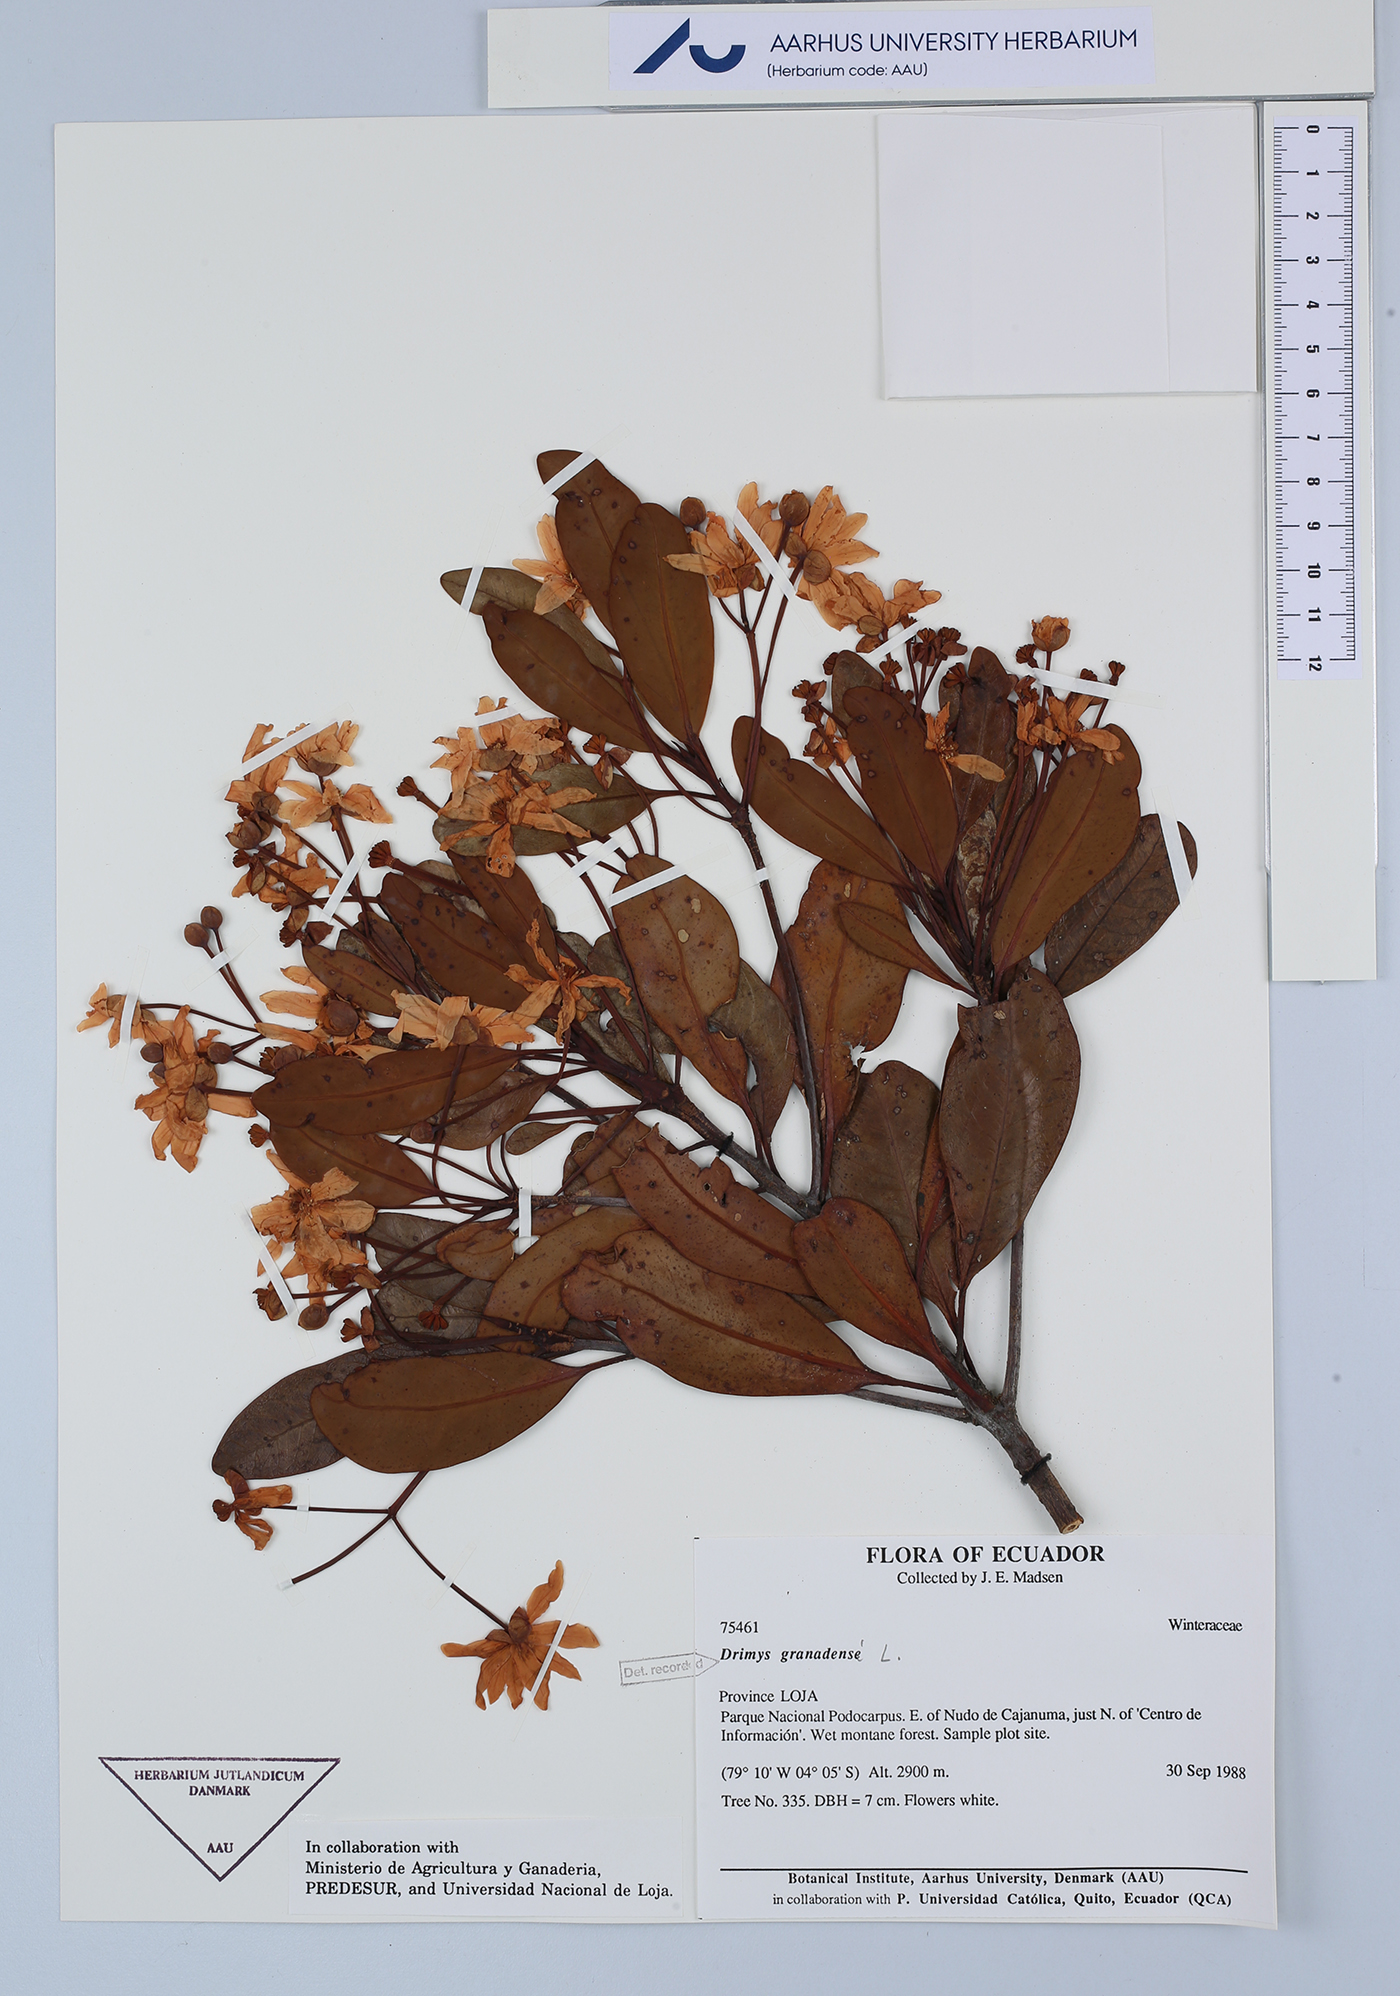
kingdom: Plantae
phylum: Tracheophyta
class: Magnoliopsida
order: Canellales
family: Winteraceae
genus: Drimys
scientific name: Drimys granadensis
